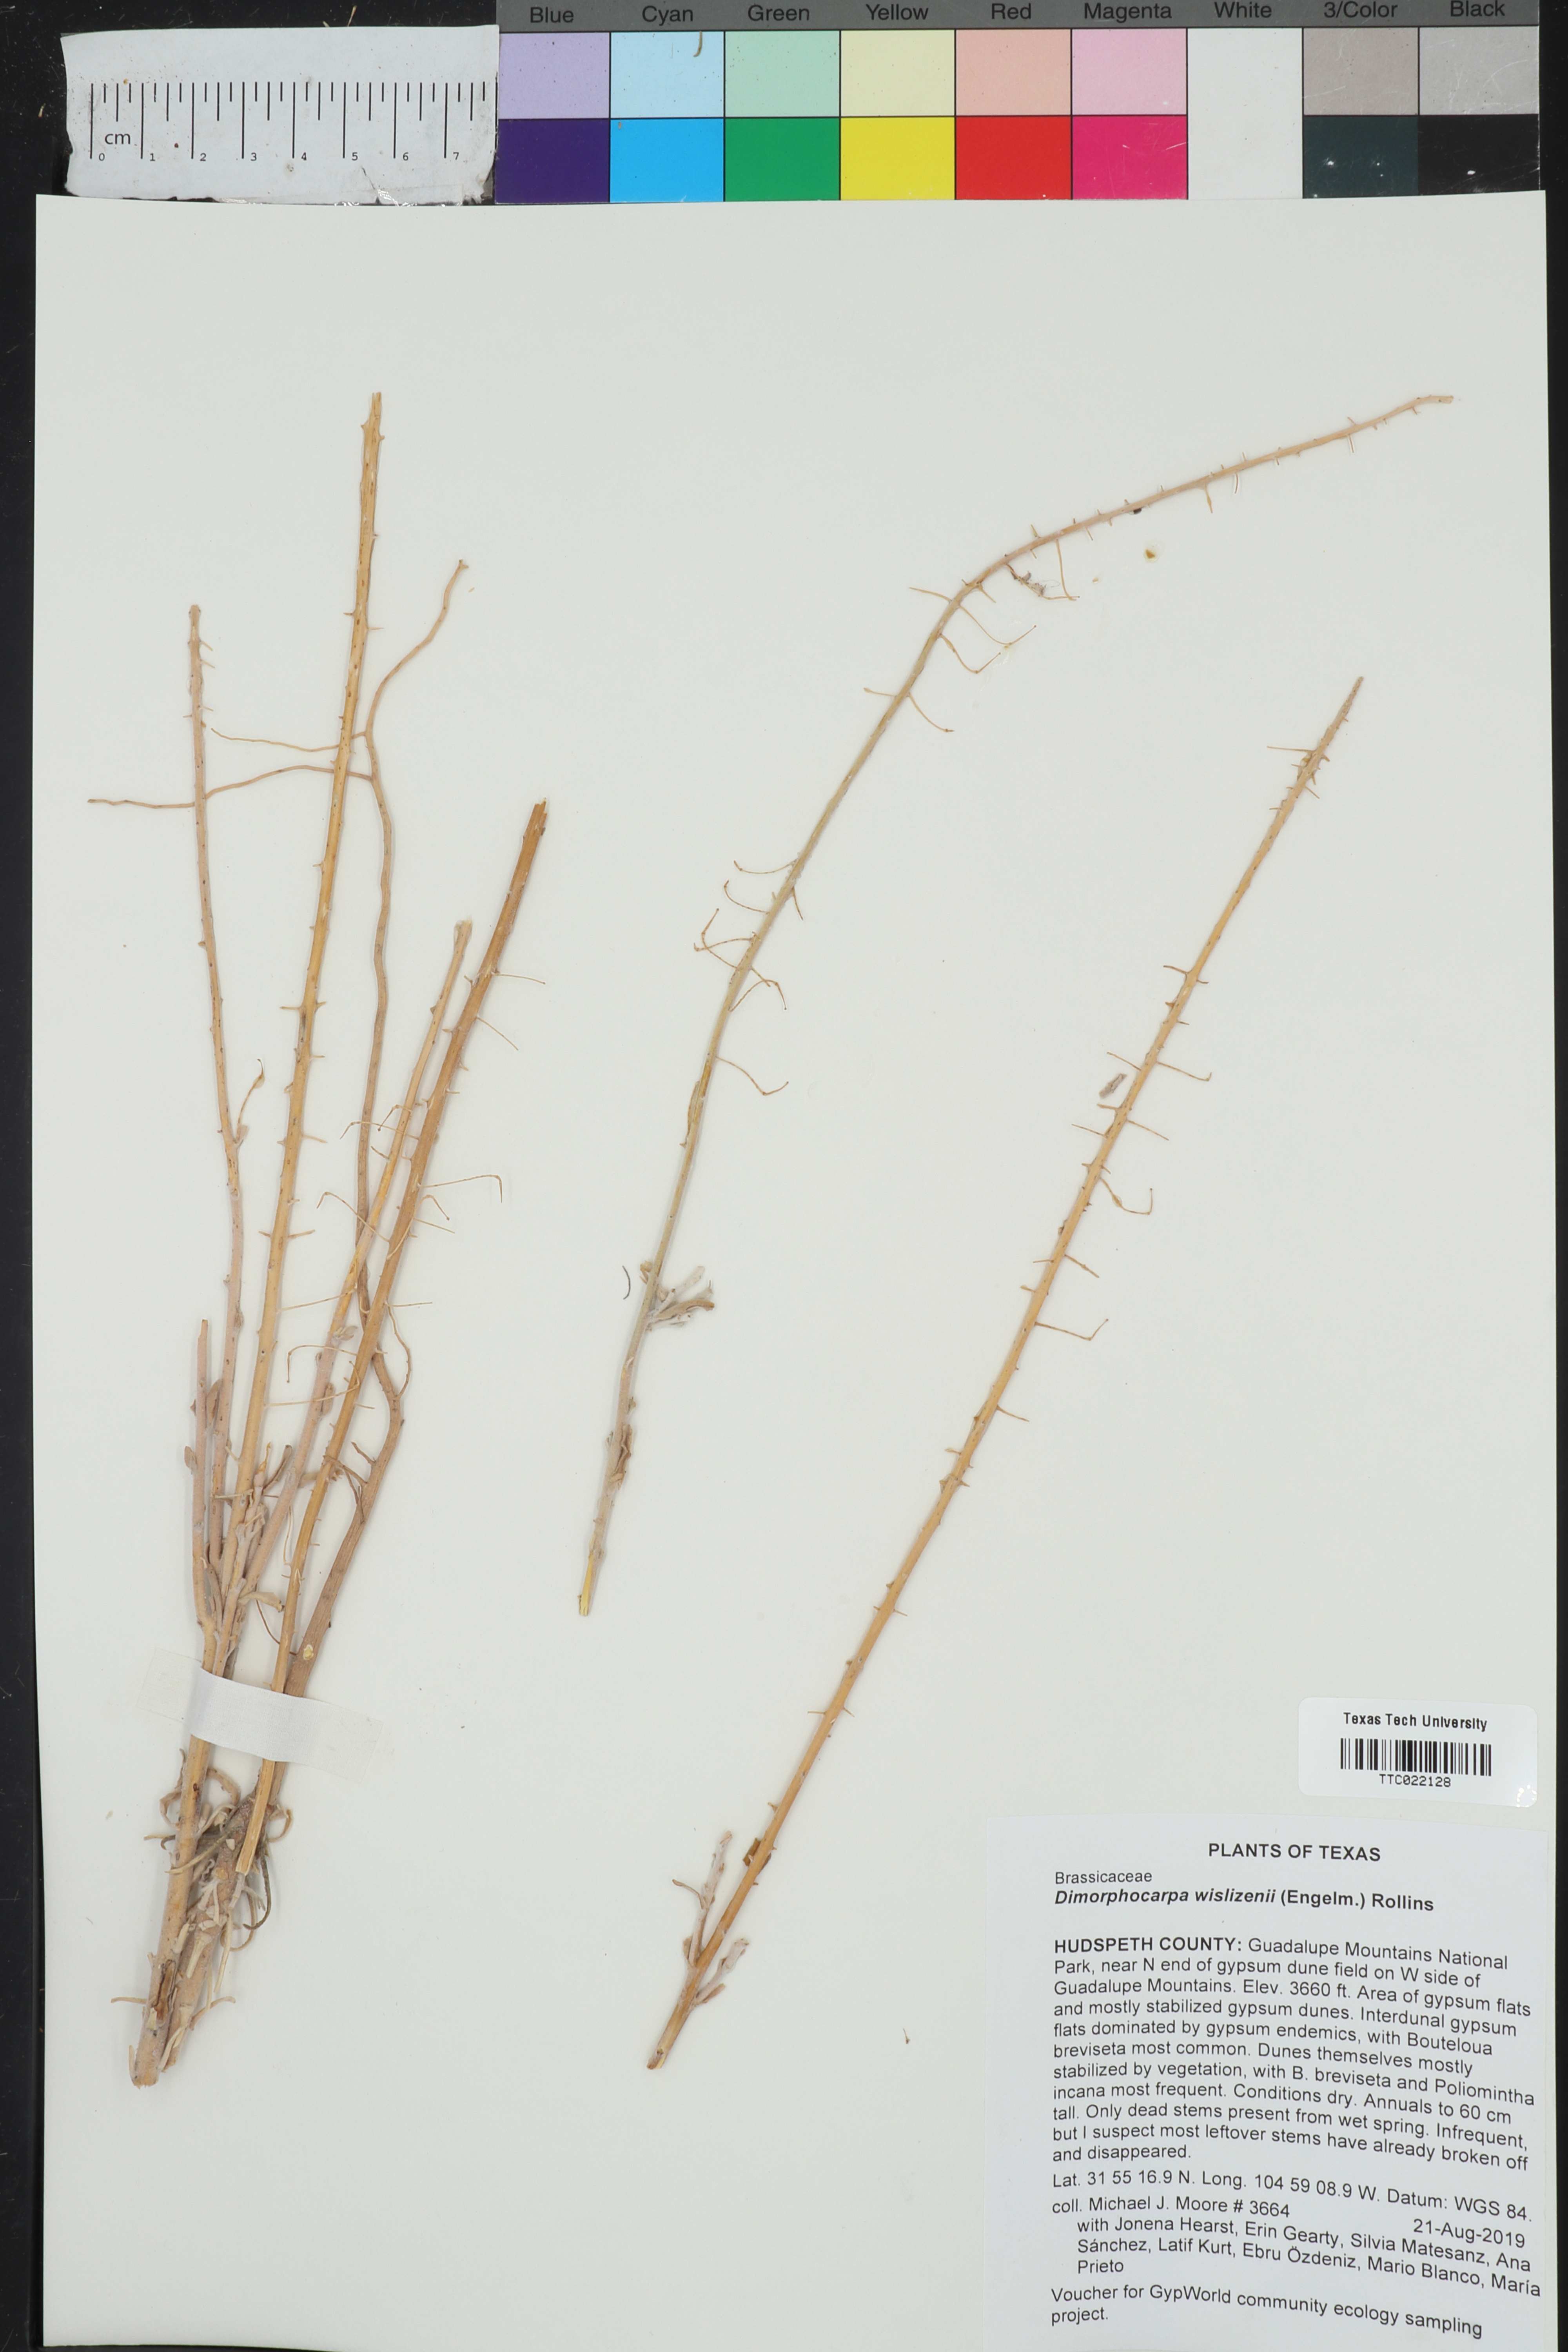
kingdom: Plantae
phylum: Tracheophyta
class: Magnoliopsida
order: Brassicales
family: Brassicaceae
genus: Dimorphocarpa
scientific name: Dimorphocarpa wislizenii
